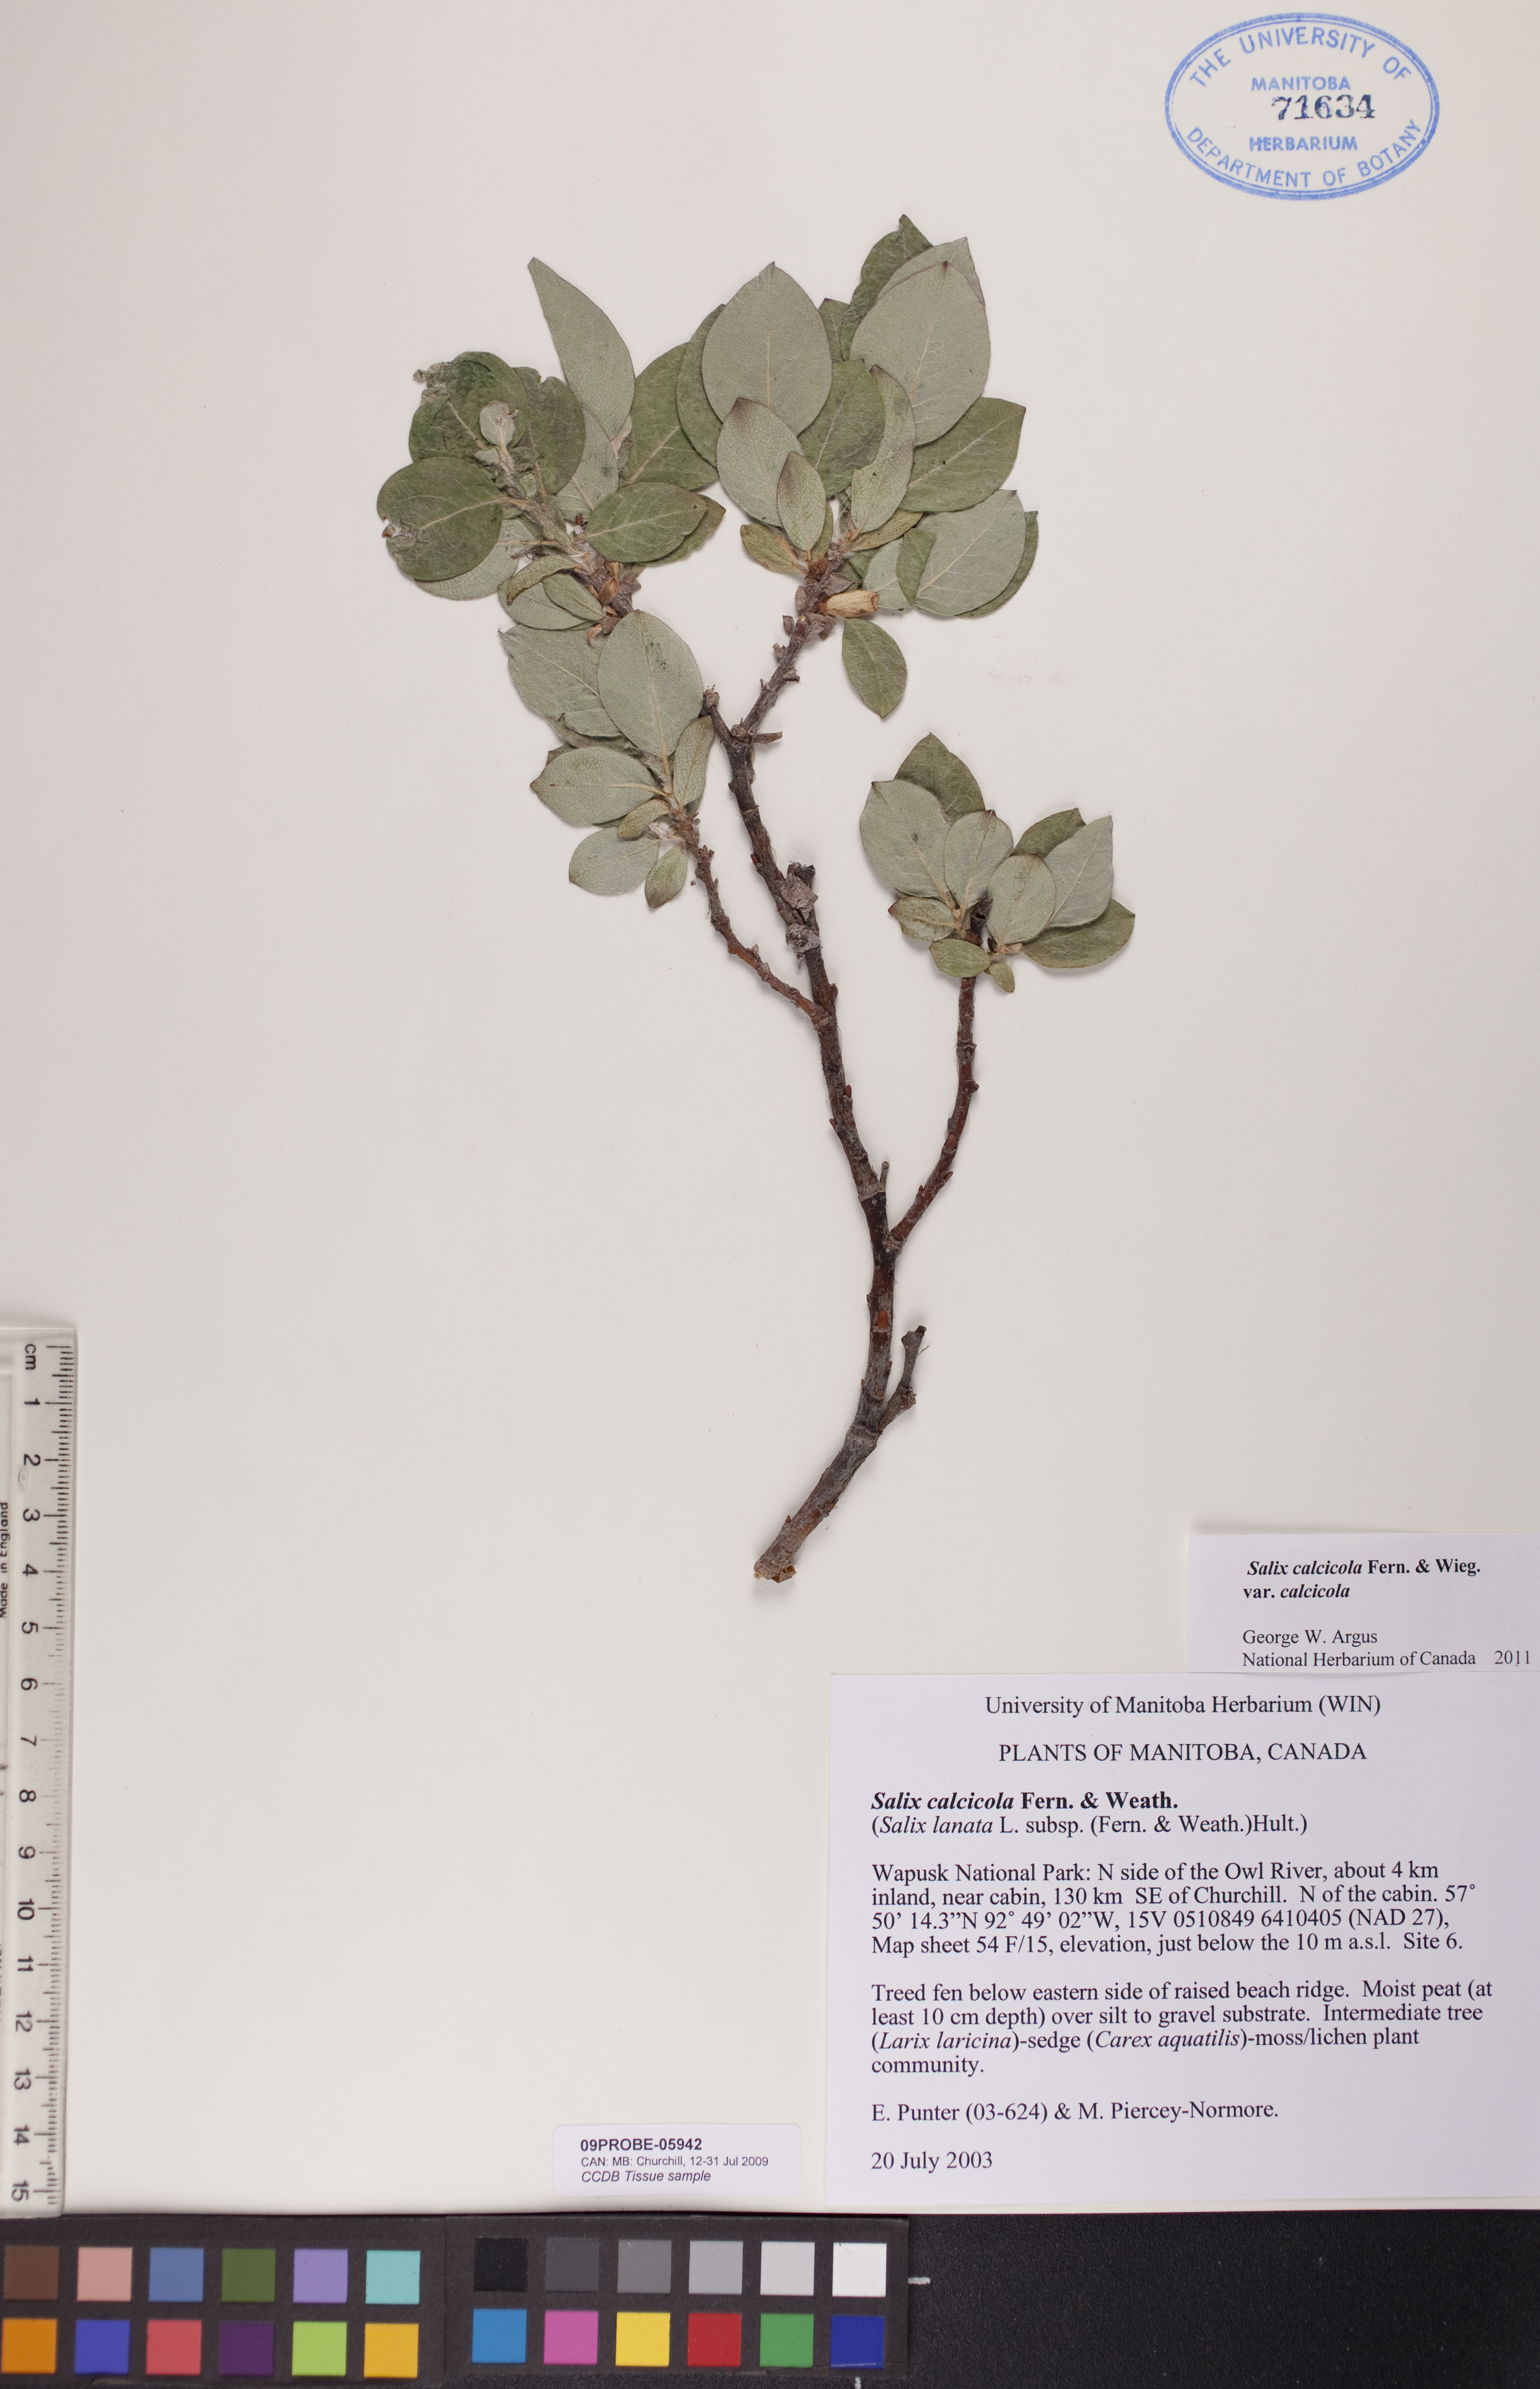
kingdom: Plantae
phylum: Tracheophyta
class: Magnoliopsida
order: Malpighiales
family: Salicaceae
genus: Salix
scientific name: Salix calcicola
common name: Calcareous willow
